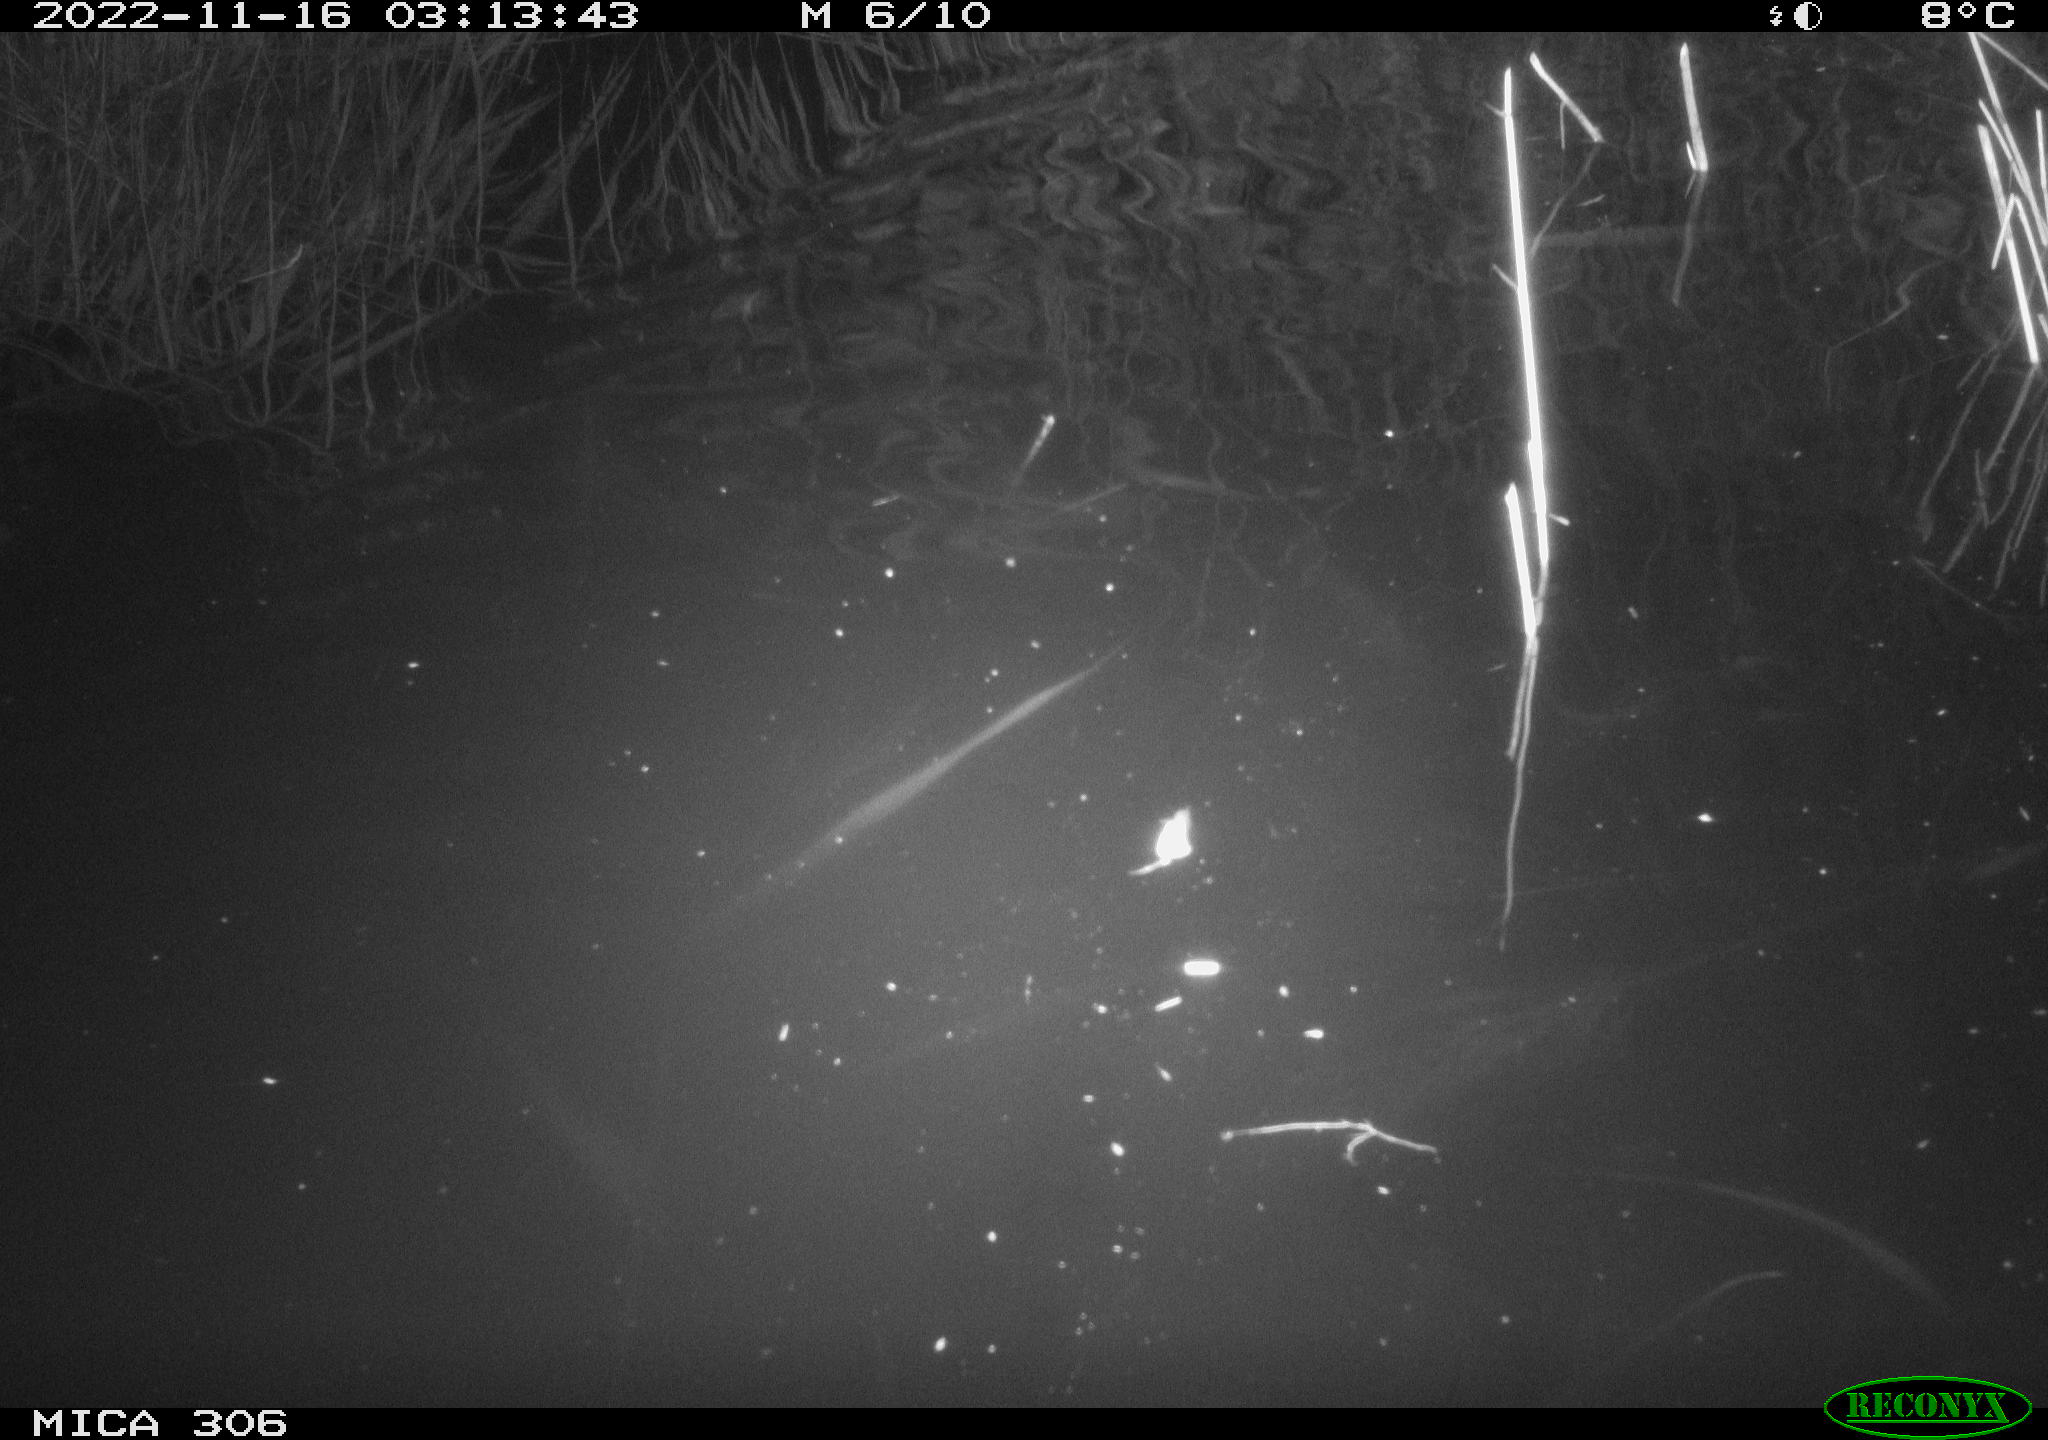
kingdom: Animalia
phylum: Chordata
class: Mammalia
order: Rodentia
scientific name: Rodentia
